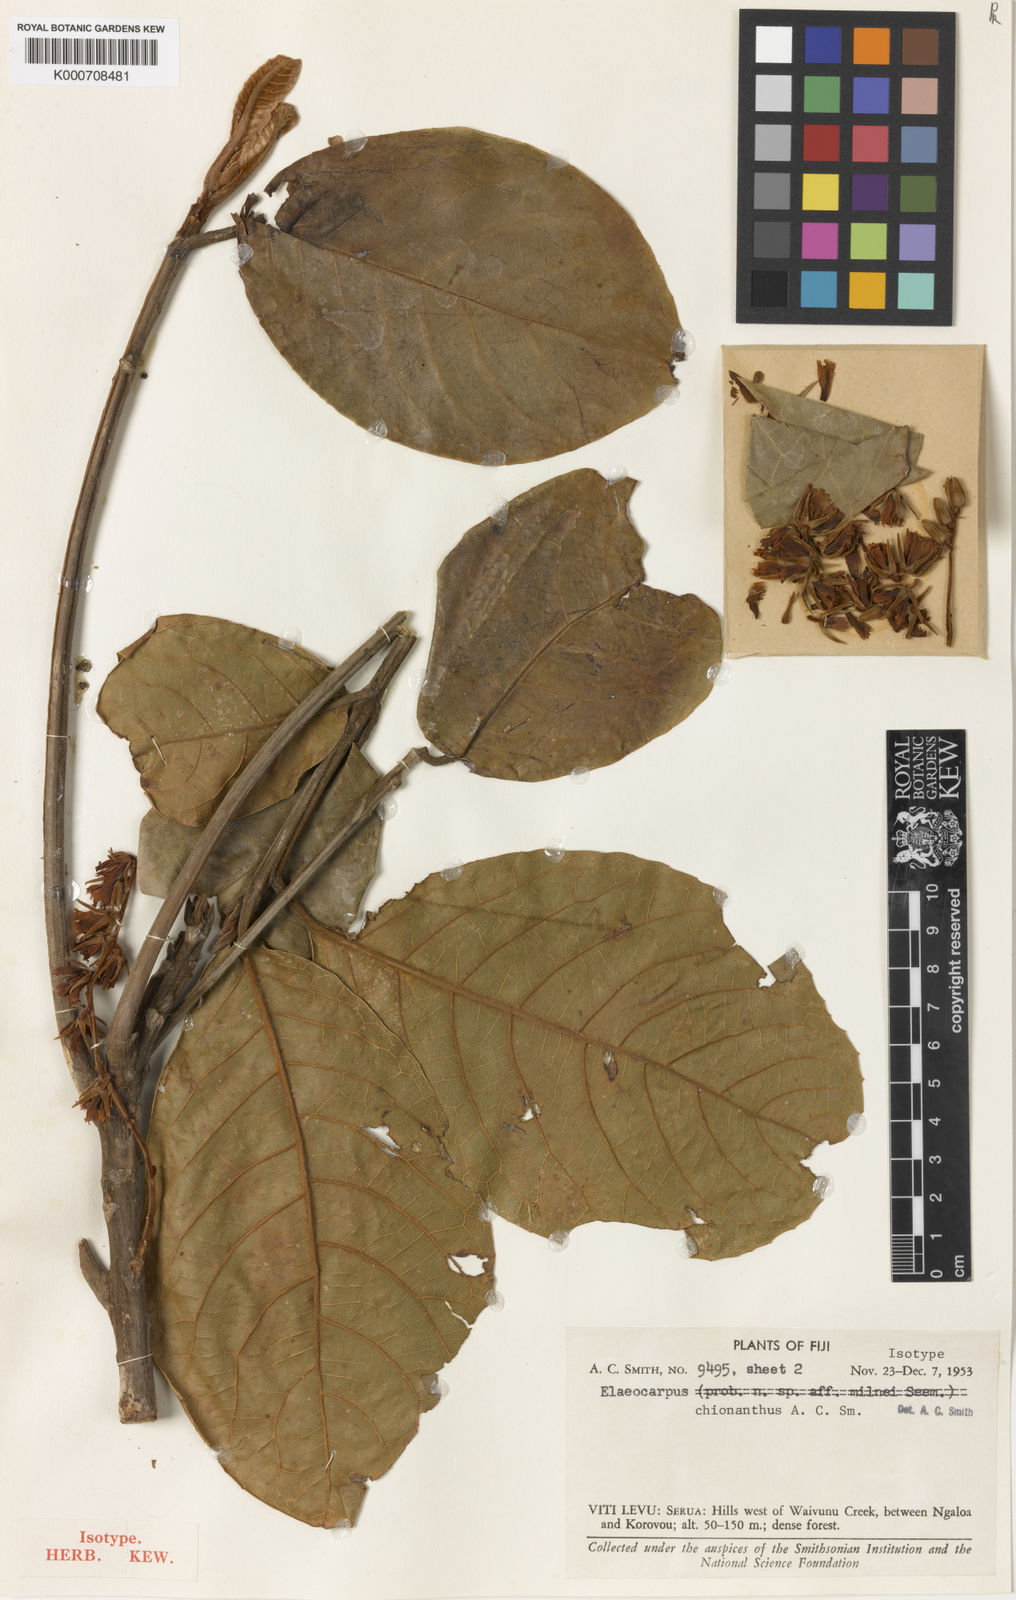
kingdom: Plantae
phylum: Tracheophyta
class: Magnoliopsida
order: Oxalidales
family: Elaeocarpaceae
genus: Elaeocarpus
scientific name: Elaeocarpus chionanthus
